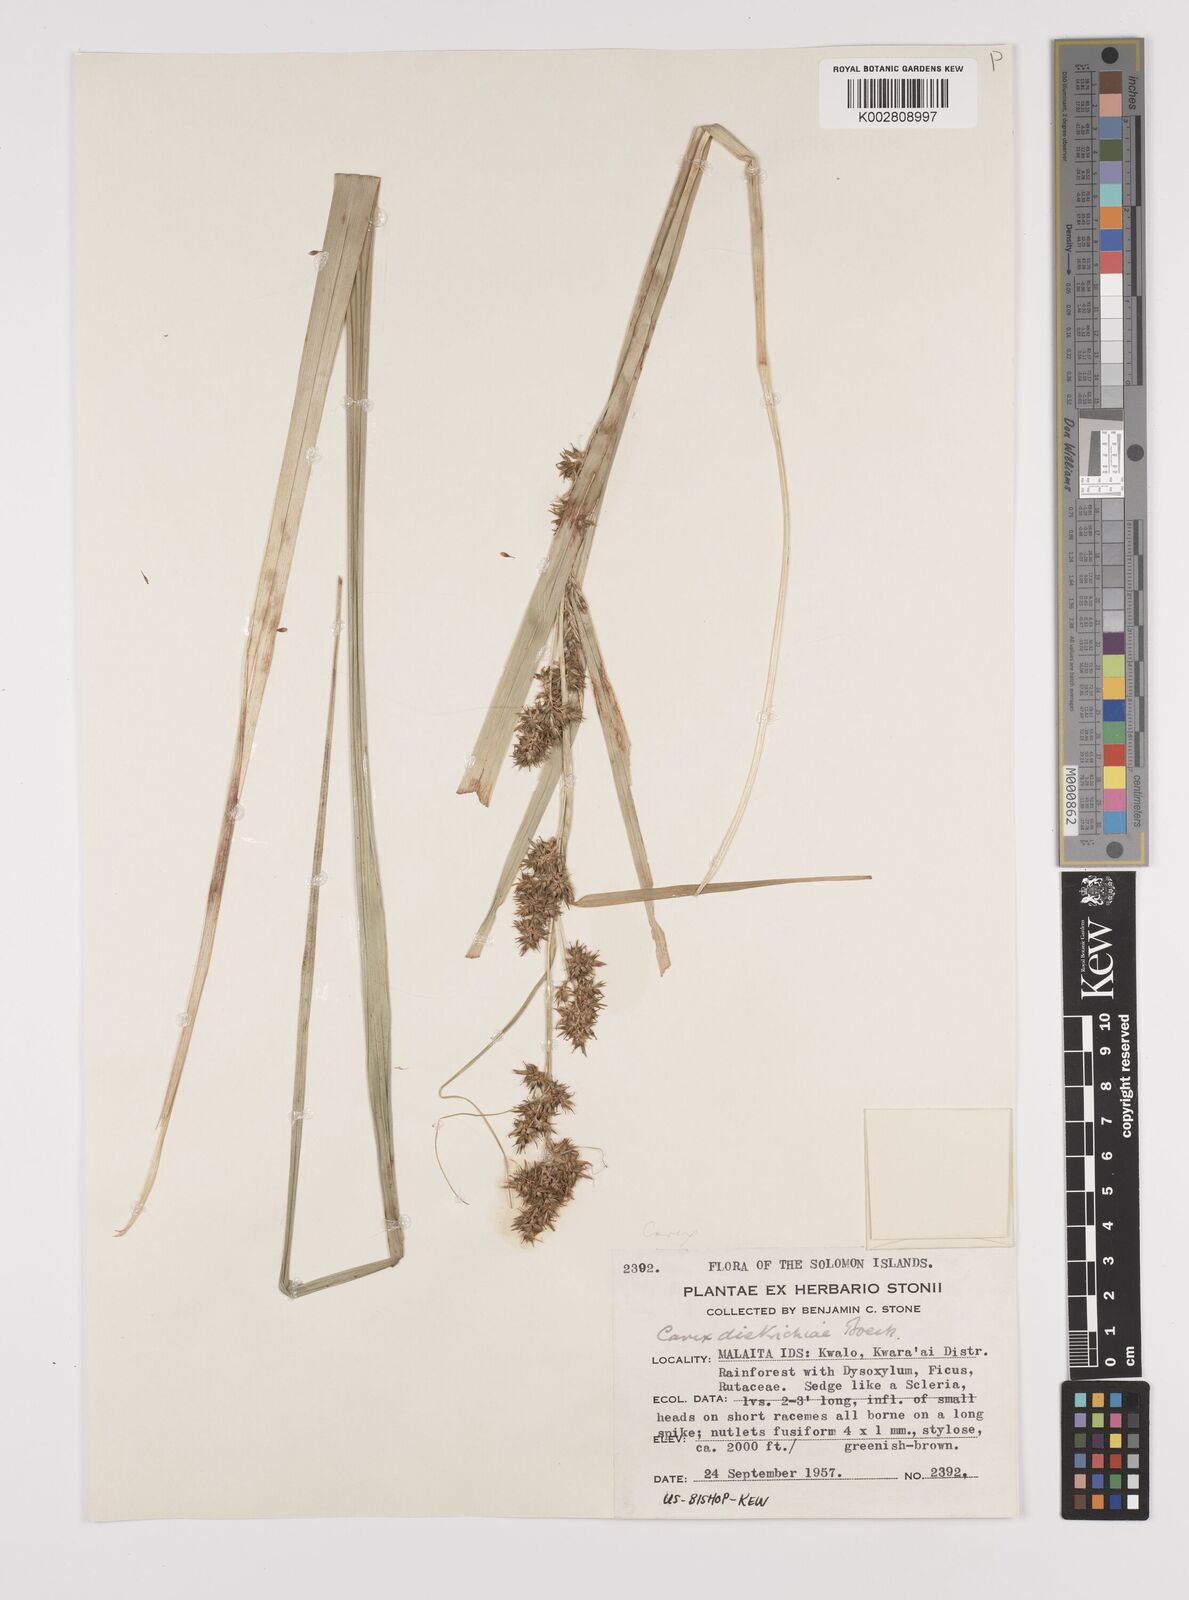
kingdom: Plantae
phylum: Tracheophyta
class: Liliopsida
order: Poales
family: Cyperaceae
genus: Carex
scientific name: Carex indica
